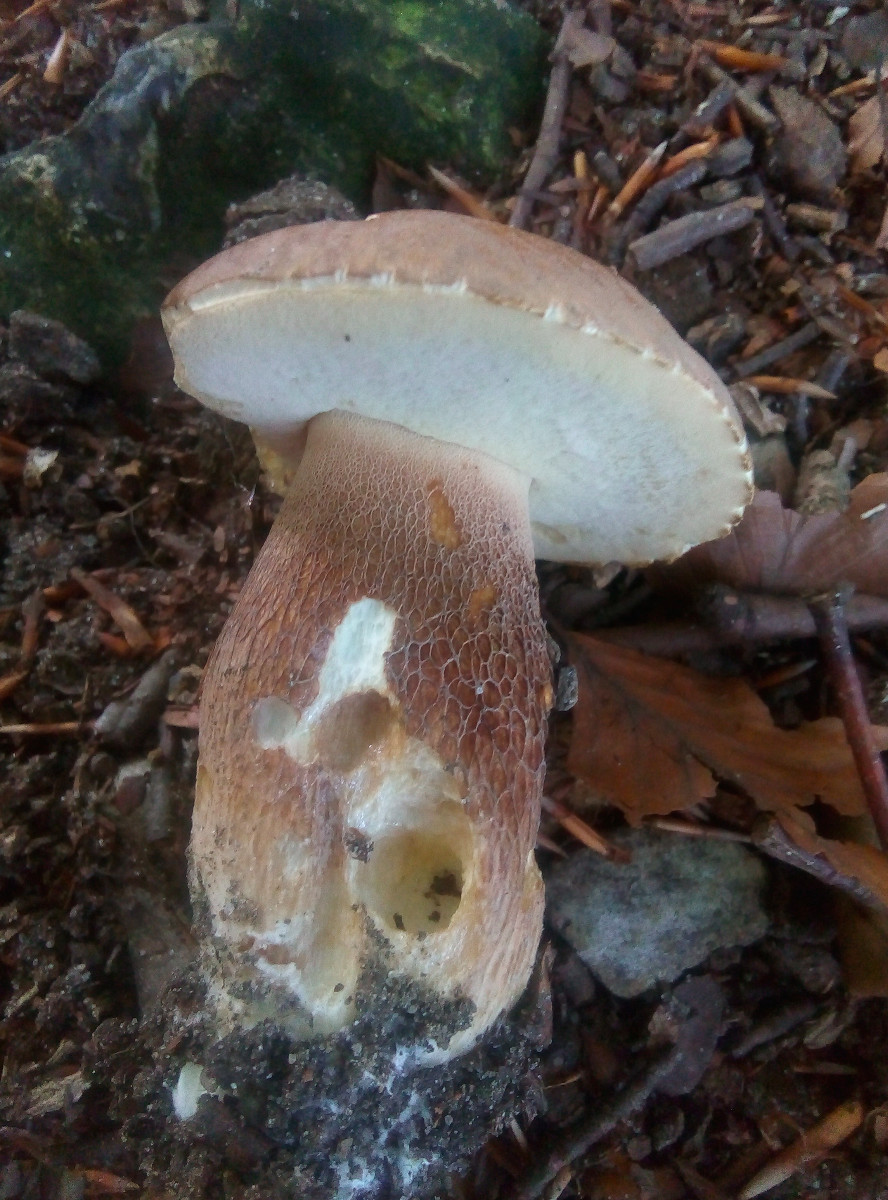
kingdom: Fungi
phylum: Basidiomycota
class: Agaricomycetes
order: Boletales
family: Boletaceae
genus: Boletus
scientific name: Boletus reticulatus
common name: sommer-rørhat
